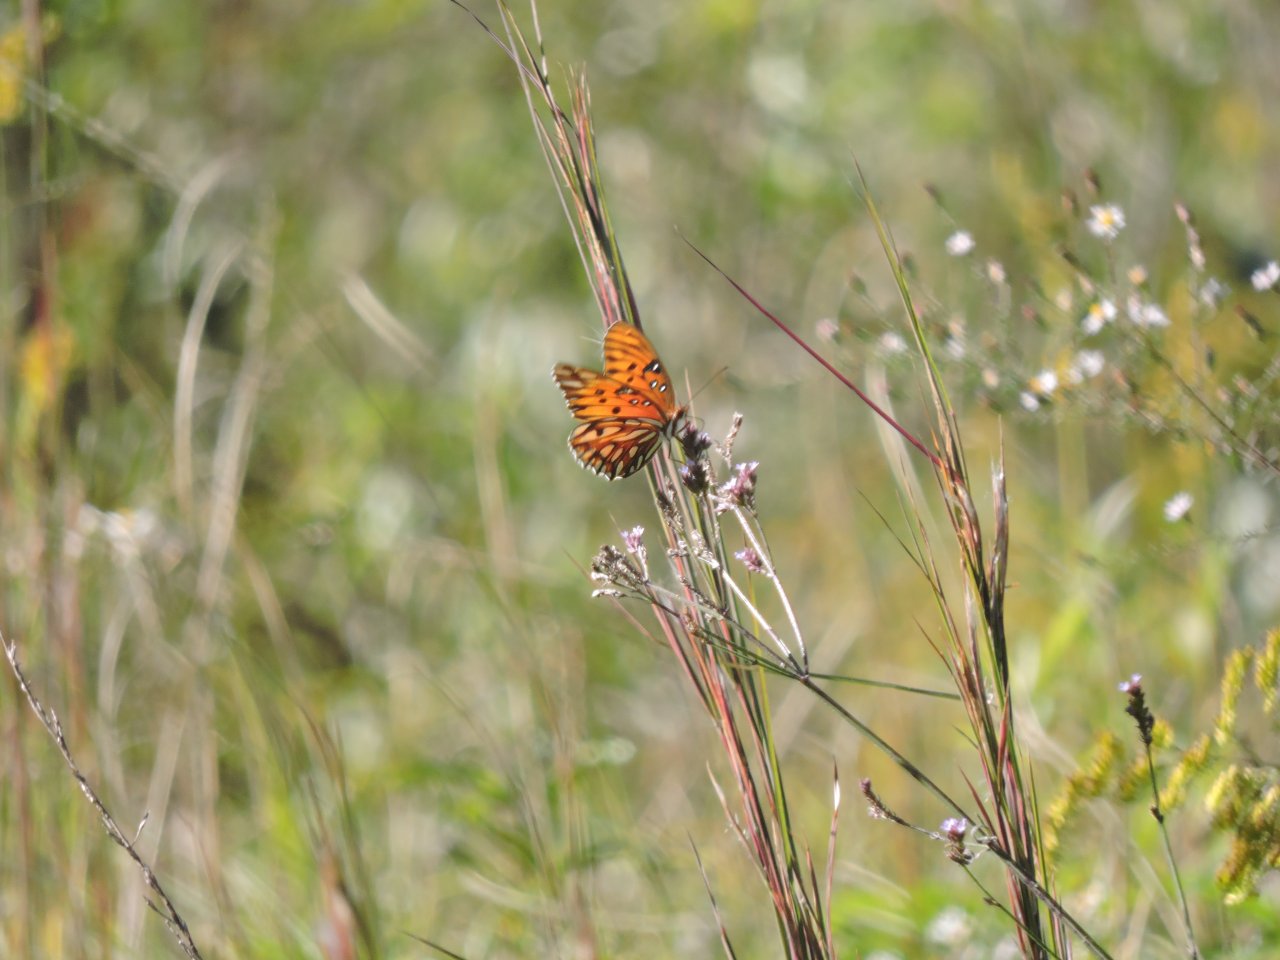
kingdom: Animalia
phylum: Arthropoda
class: Insecta
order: Lepidoptera
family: Nymphalidae
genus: Dione
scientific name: Dione vanillae
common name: Gulf Fritillary
